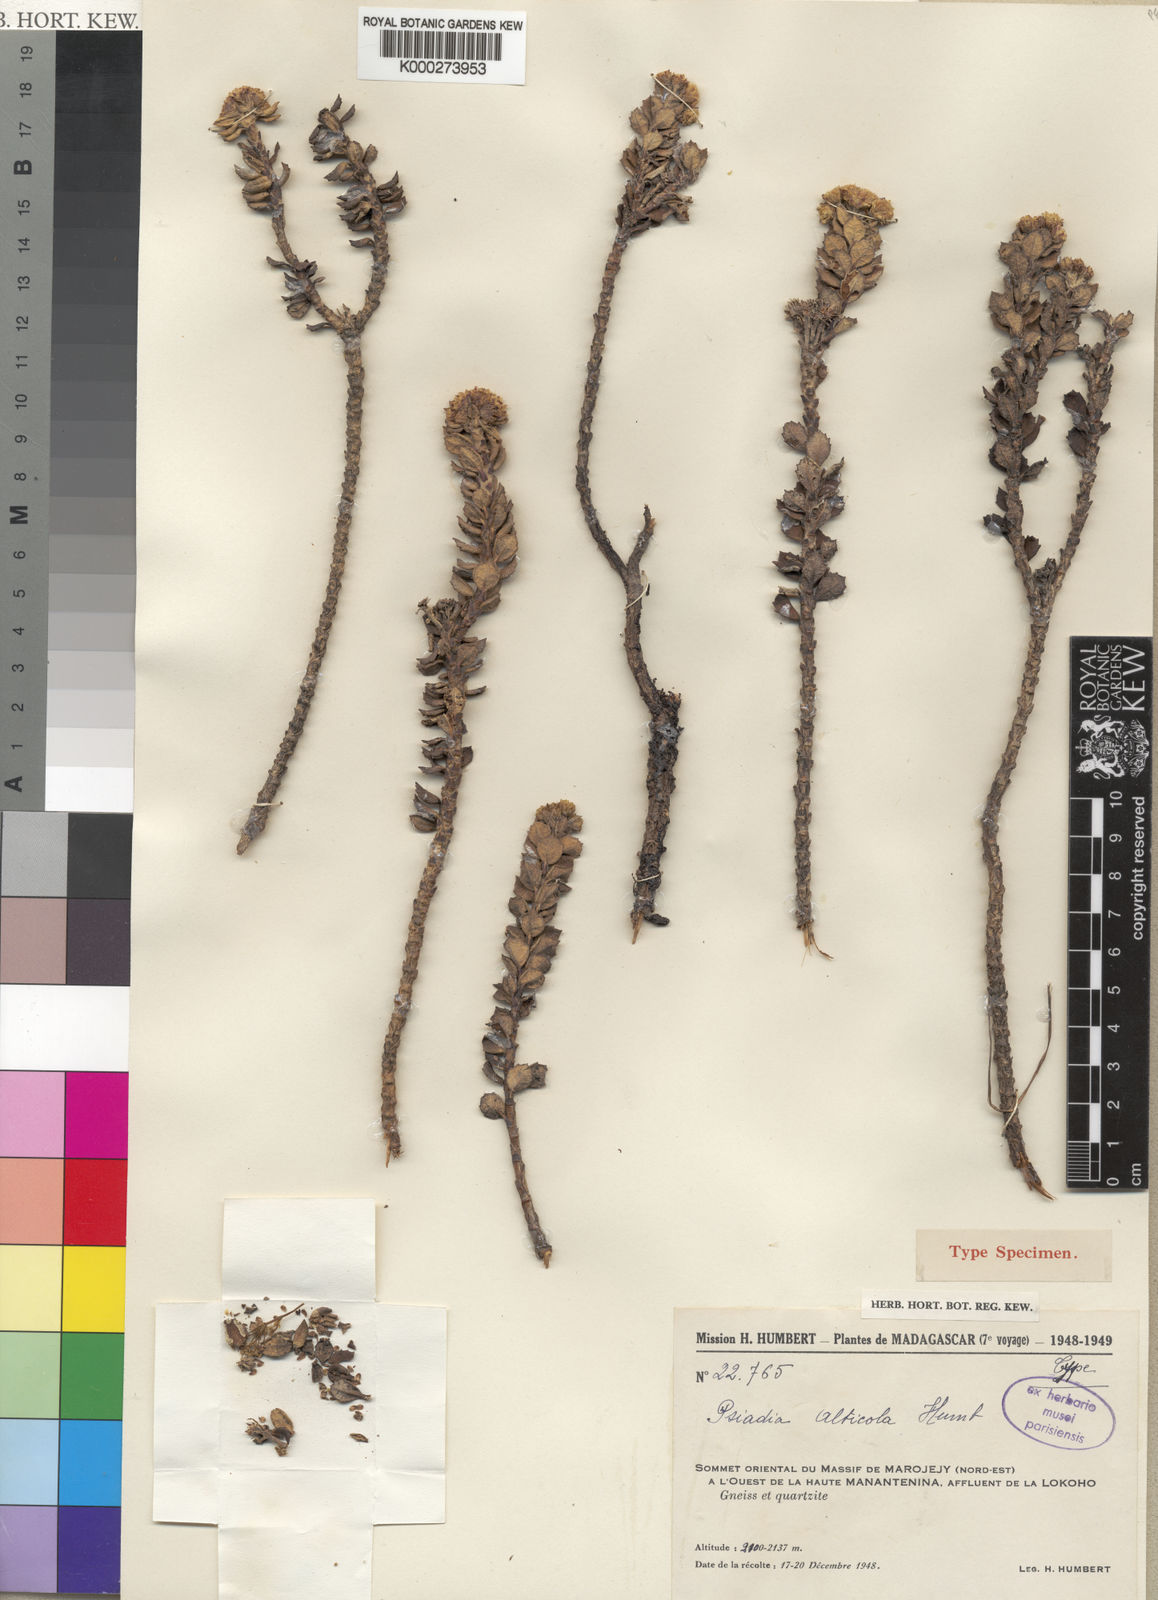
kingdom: Plantae
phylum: Tracheophyta
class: Magnoliopsida
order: Asterales
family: Asteraceae
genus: Psiadia
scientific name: Psiadia alticola
